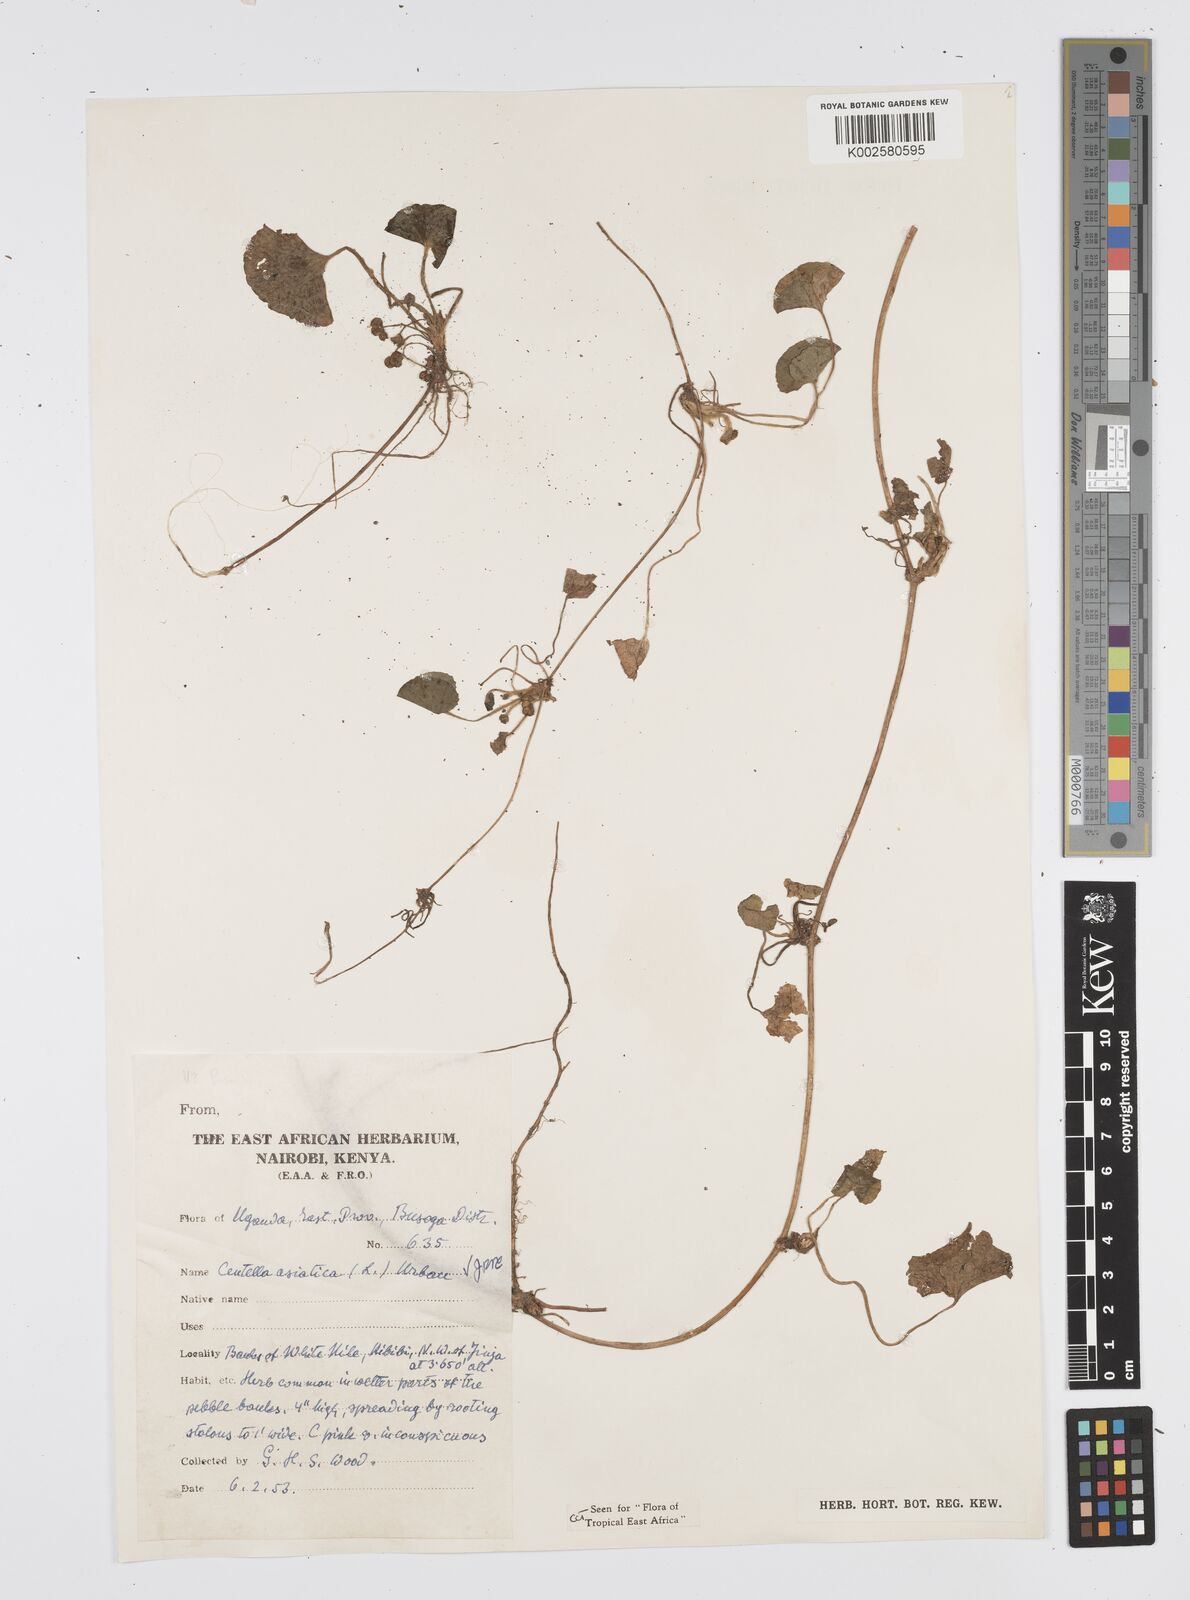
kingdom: Plantae
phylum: Tracheophyta
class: Magnoliopsida
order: Apiales
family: Apiaceae
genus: Centella
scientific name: Centella asiatica
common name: Spadeleaf
